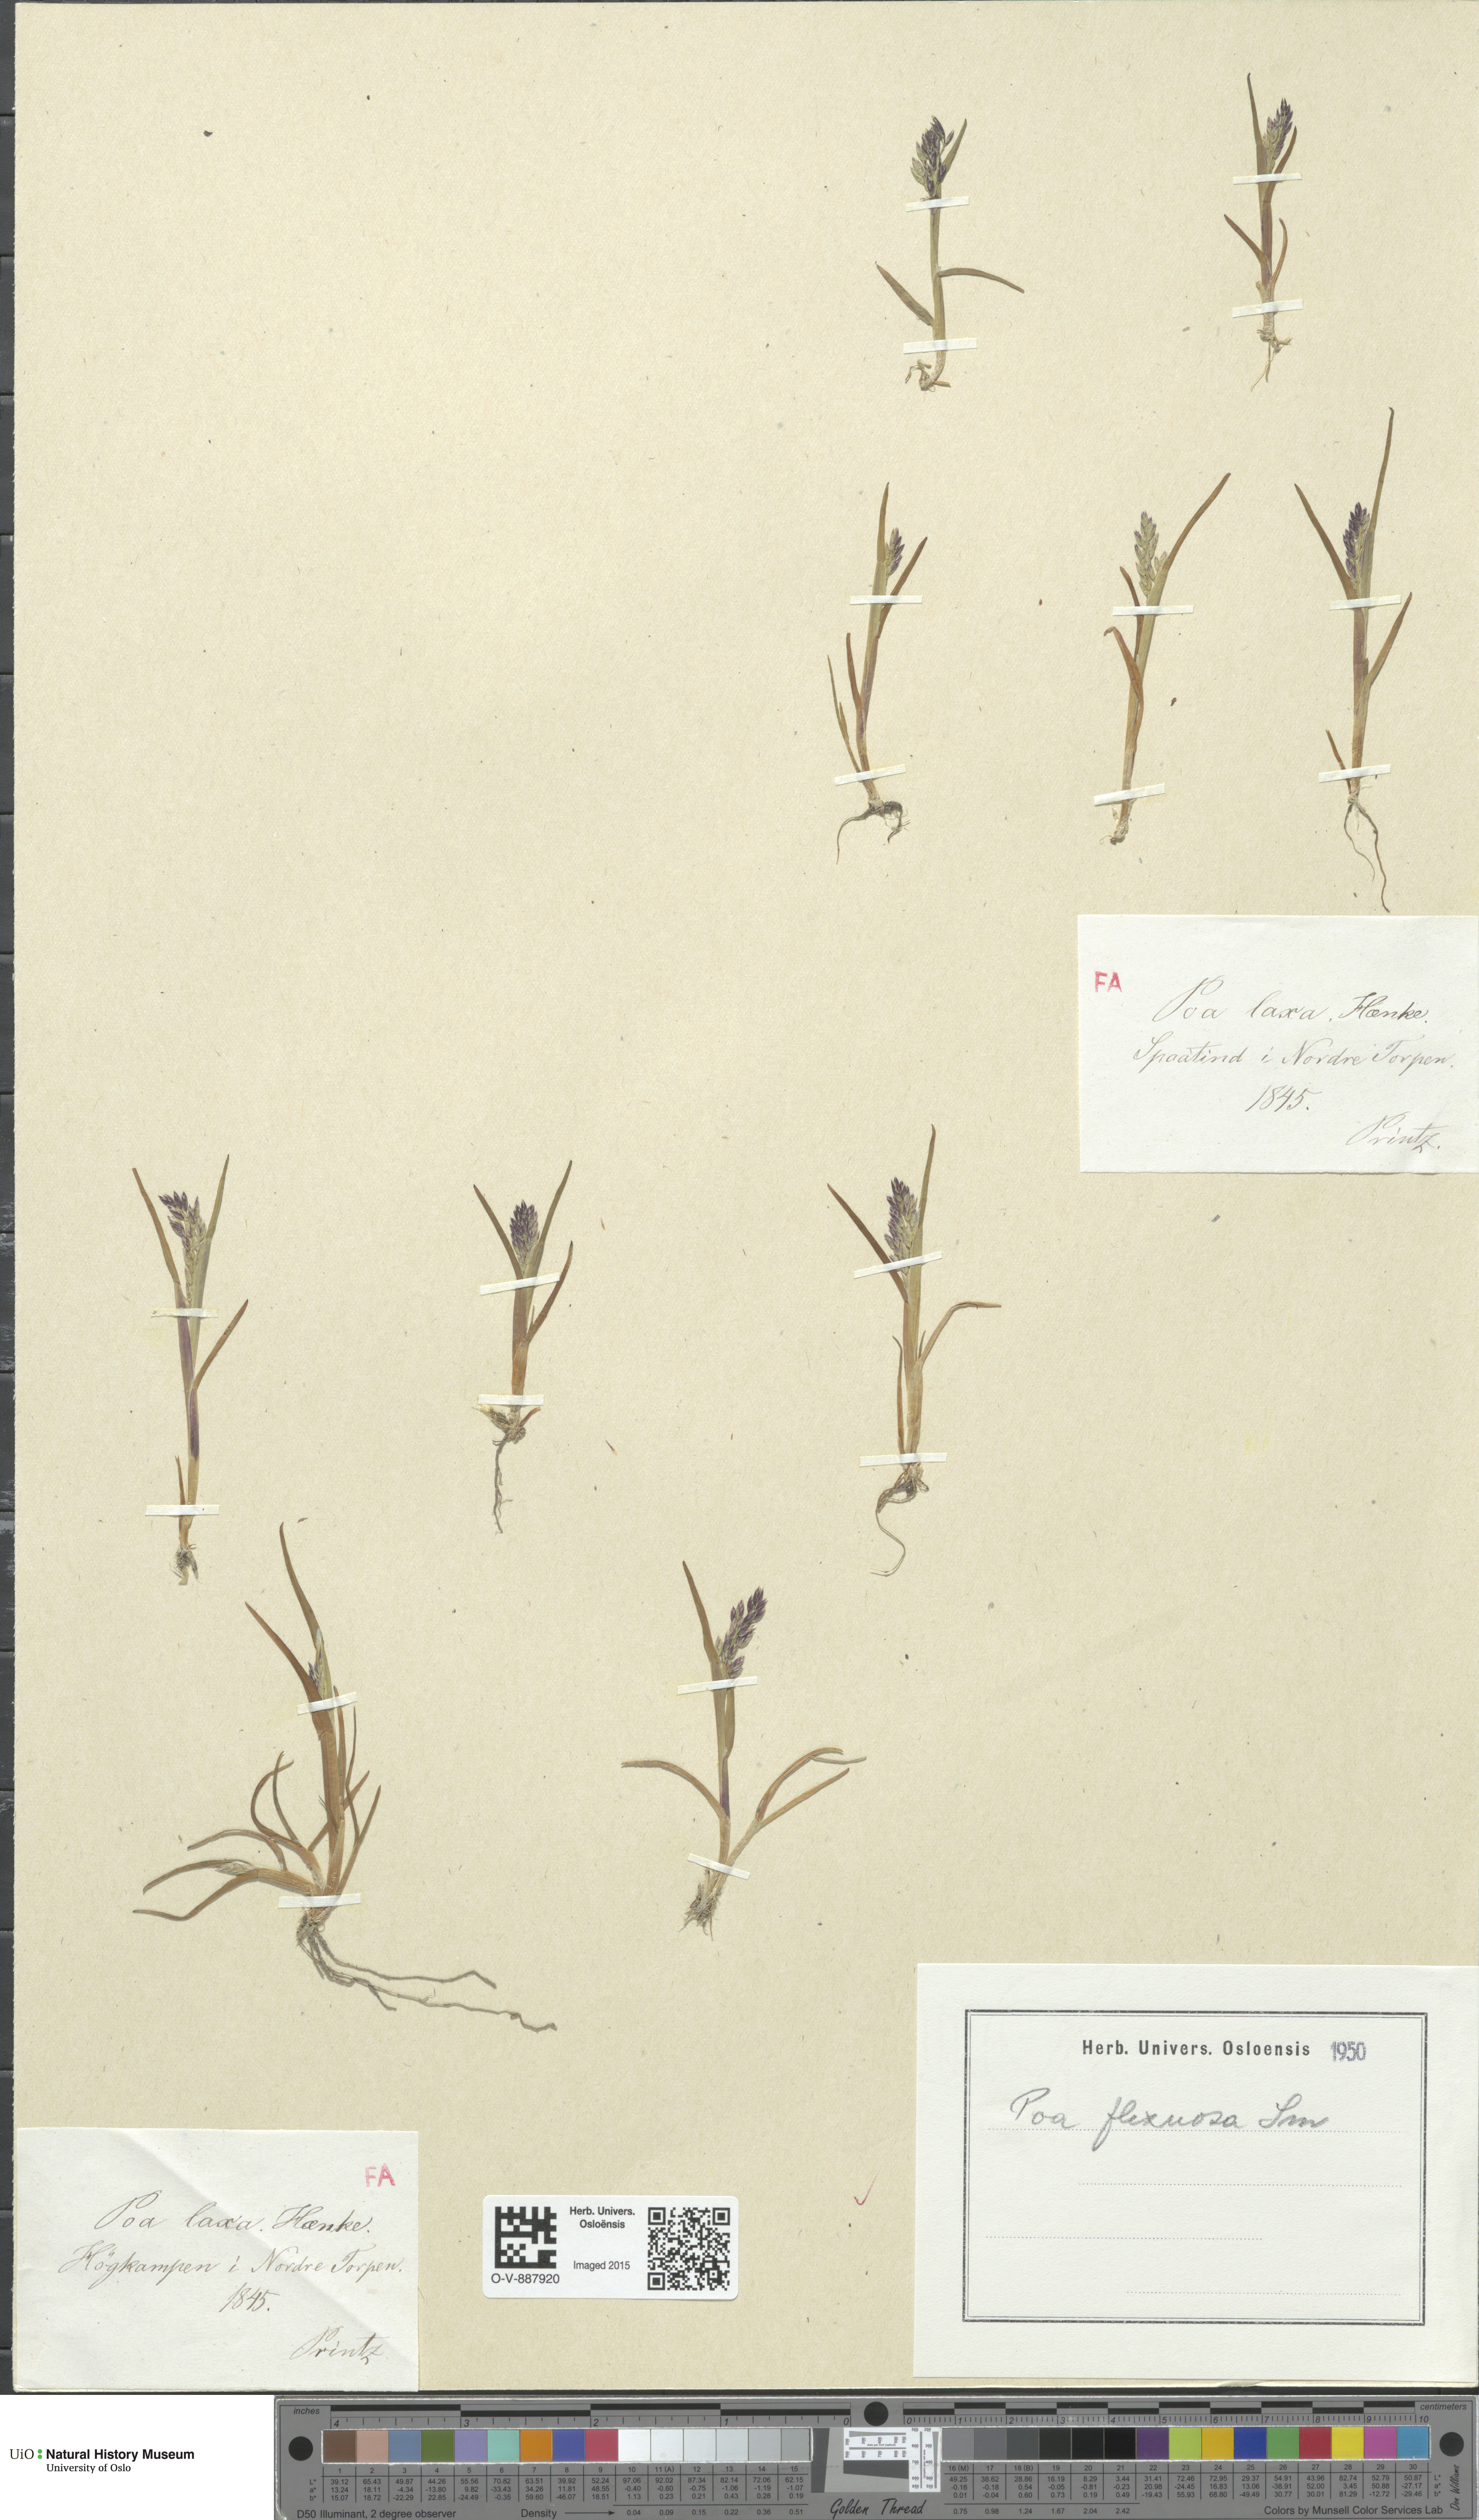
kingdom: Plantae
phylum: Tracheophyta
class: Liliopsida
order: Poales
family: Poaceae
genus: Poa
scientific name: Poa flexuosa
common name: Wavy meadow-grass
